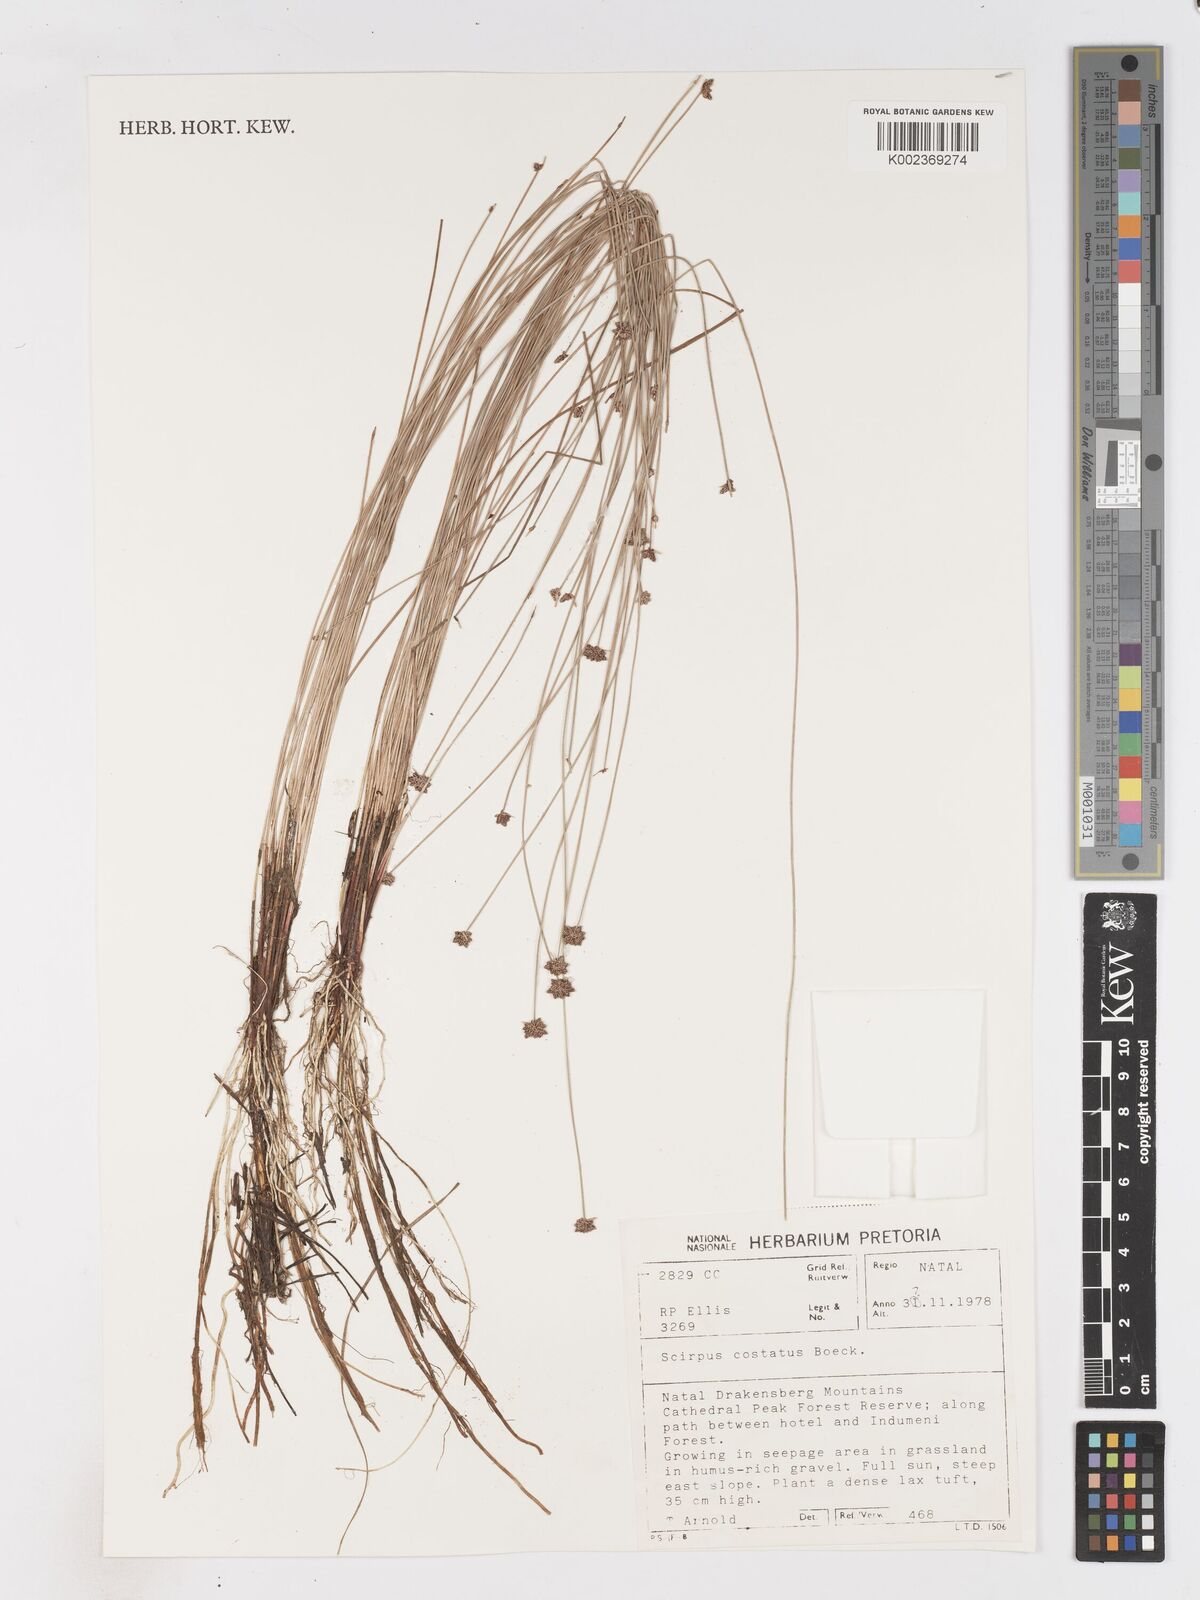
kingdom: Plantae
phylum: Tracheophyta
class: Liliopsida
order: Poales
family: Cyperaceae
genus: Isolepis
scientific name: Isolepis costata
